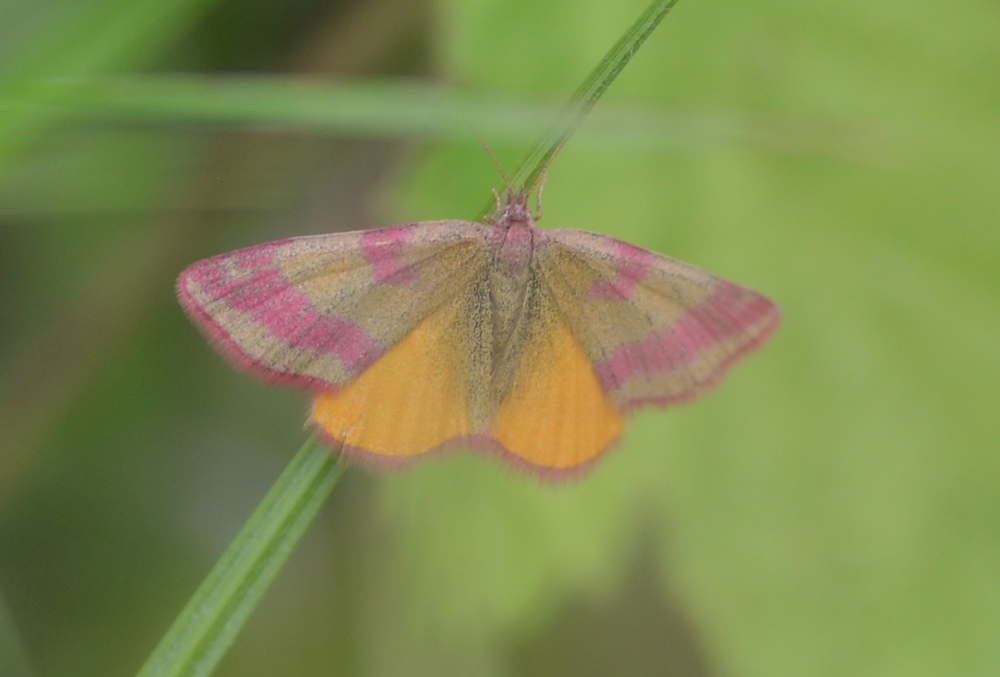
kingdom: Animalia
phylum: Arthropoda
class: Insecta
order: Lepidoptera
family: Geometridae
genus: Lythria
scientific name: Lythria cruentaria
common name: Purple-barred yellow
